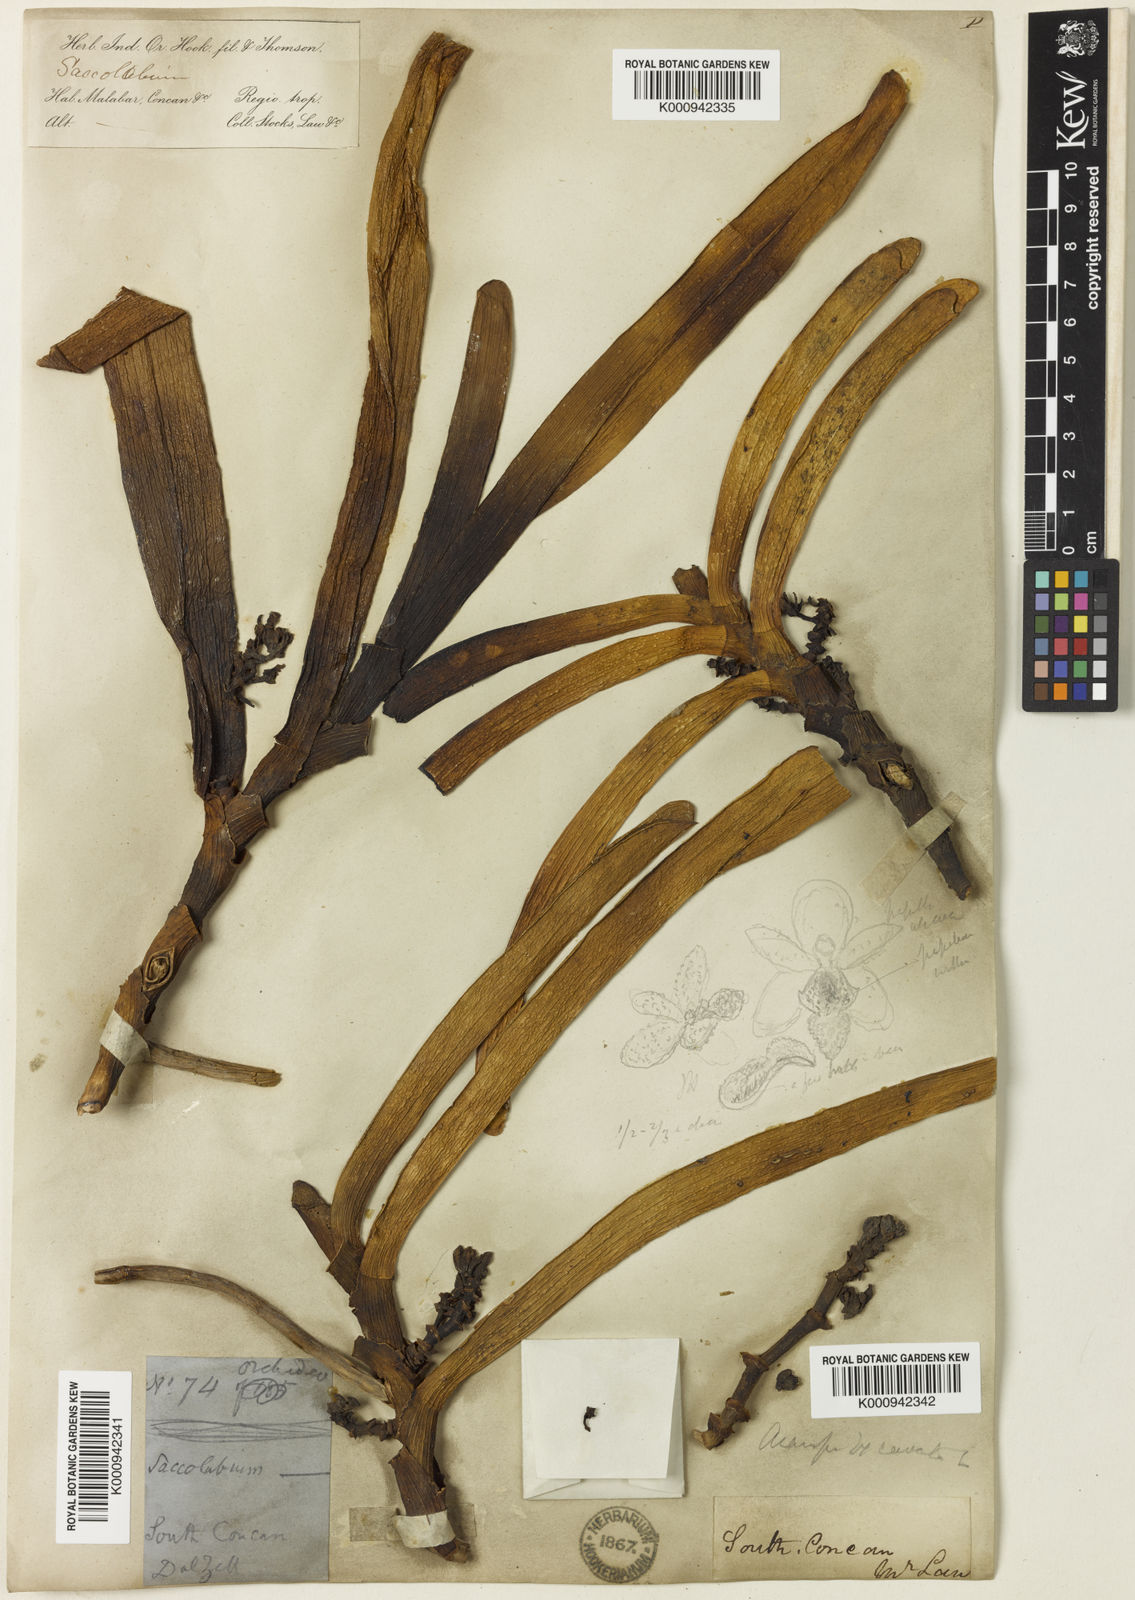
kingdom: Plantae
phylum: Tracheophyta
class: Liliopsida
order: Asparagales
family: Orchidaceae
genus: Acampe
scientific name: Acampe praemorsa
